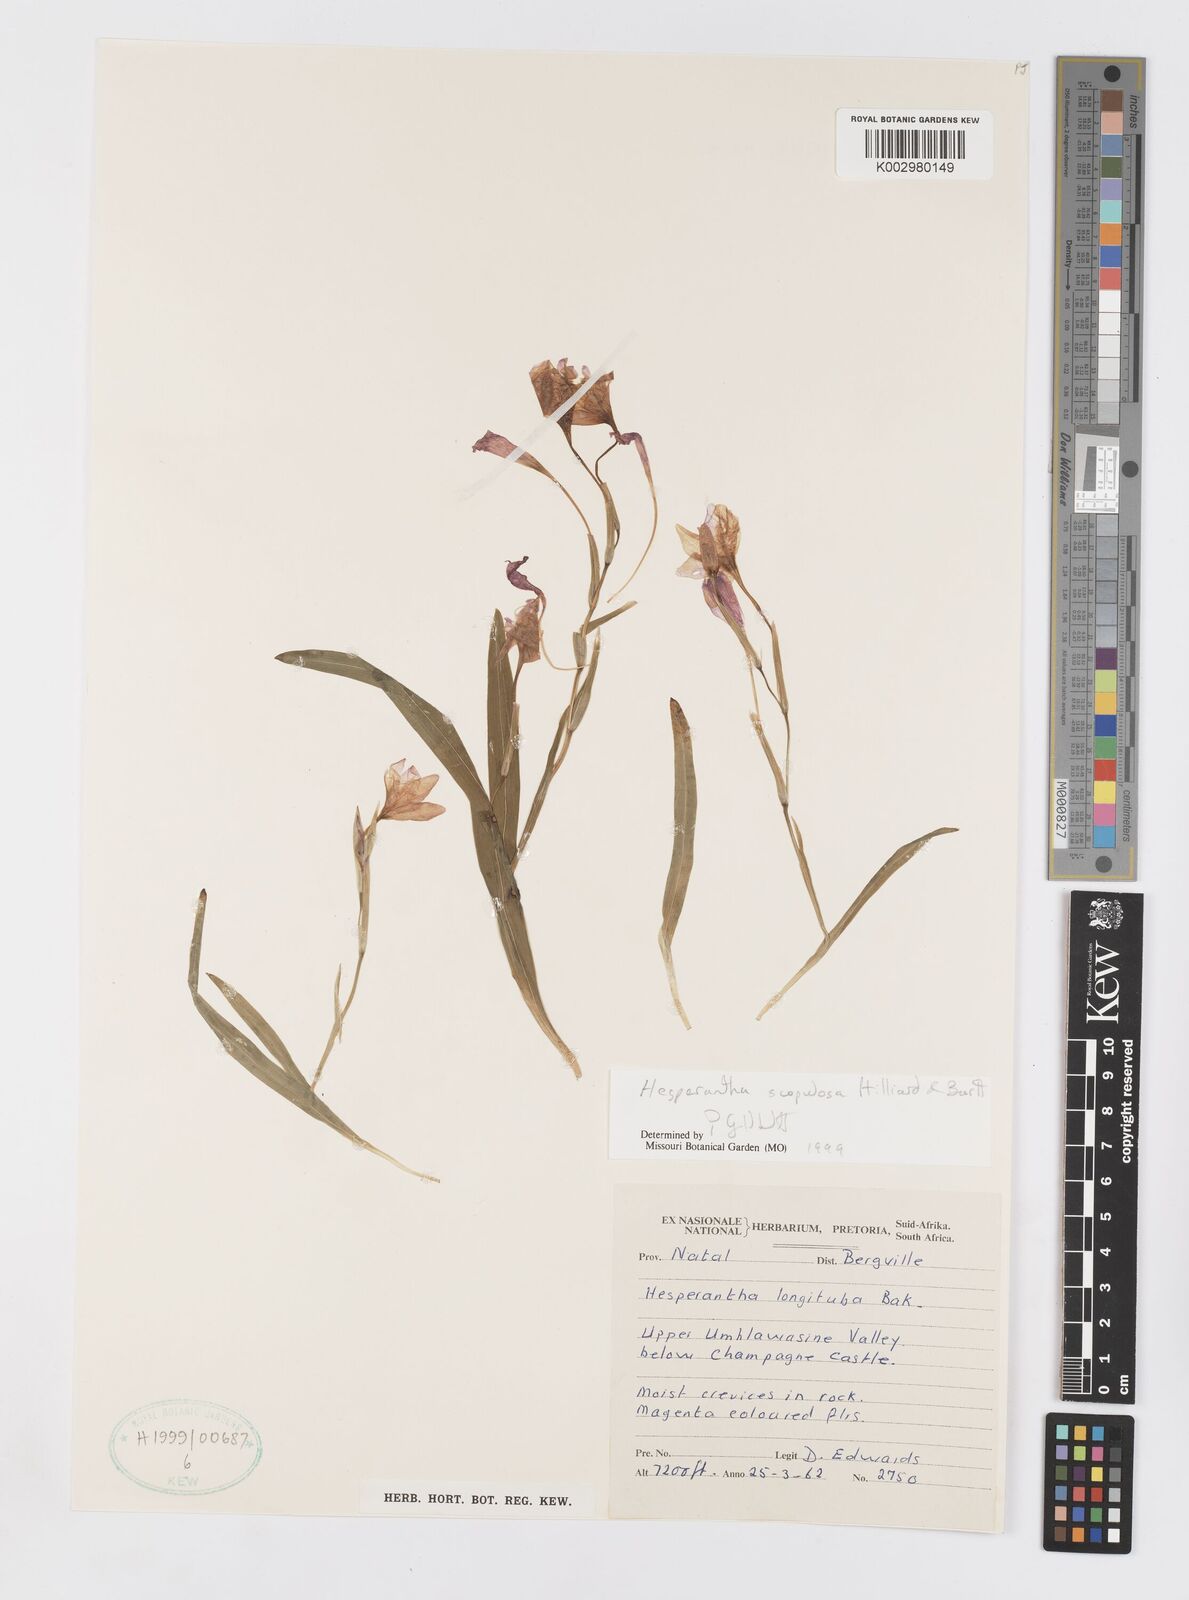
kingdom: Plantae
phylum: Tracheophyta
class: Liliopsida
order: Asparagales
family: Iridaceae
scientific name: Iridaceae
